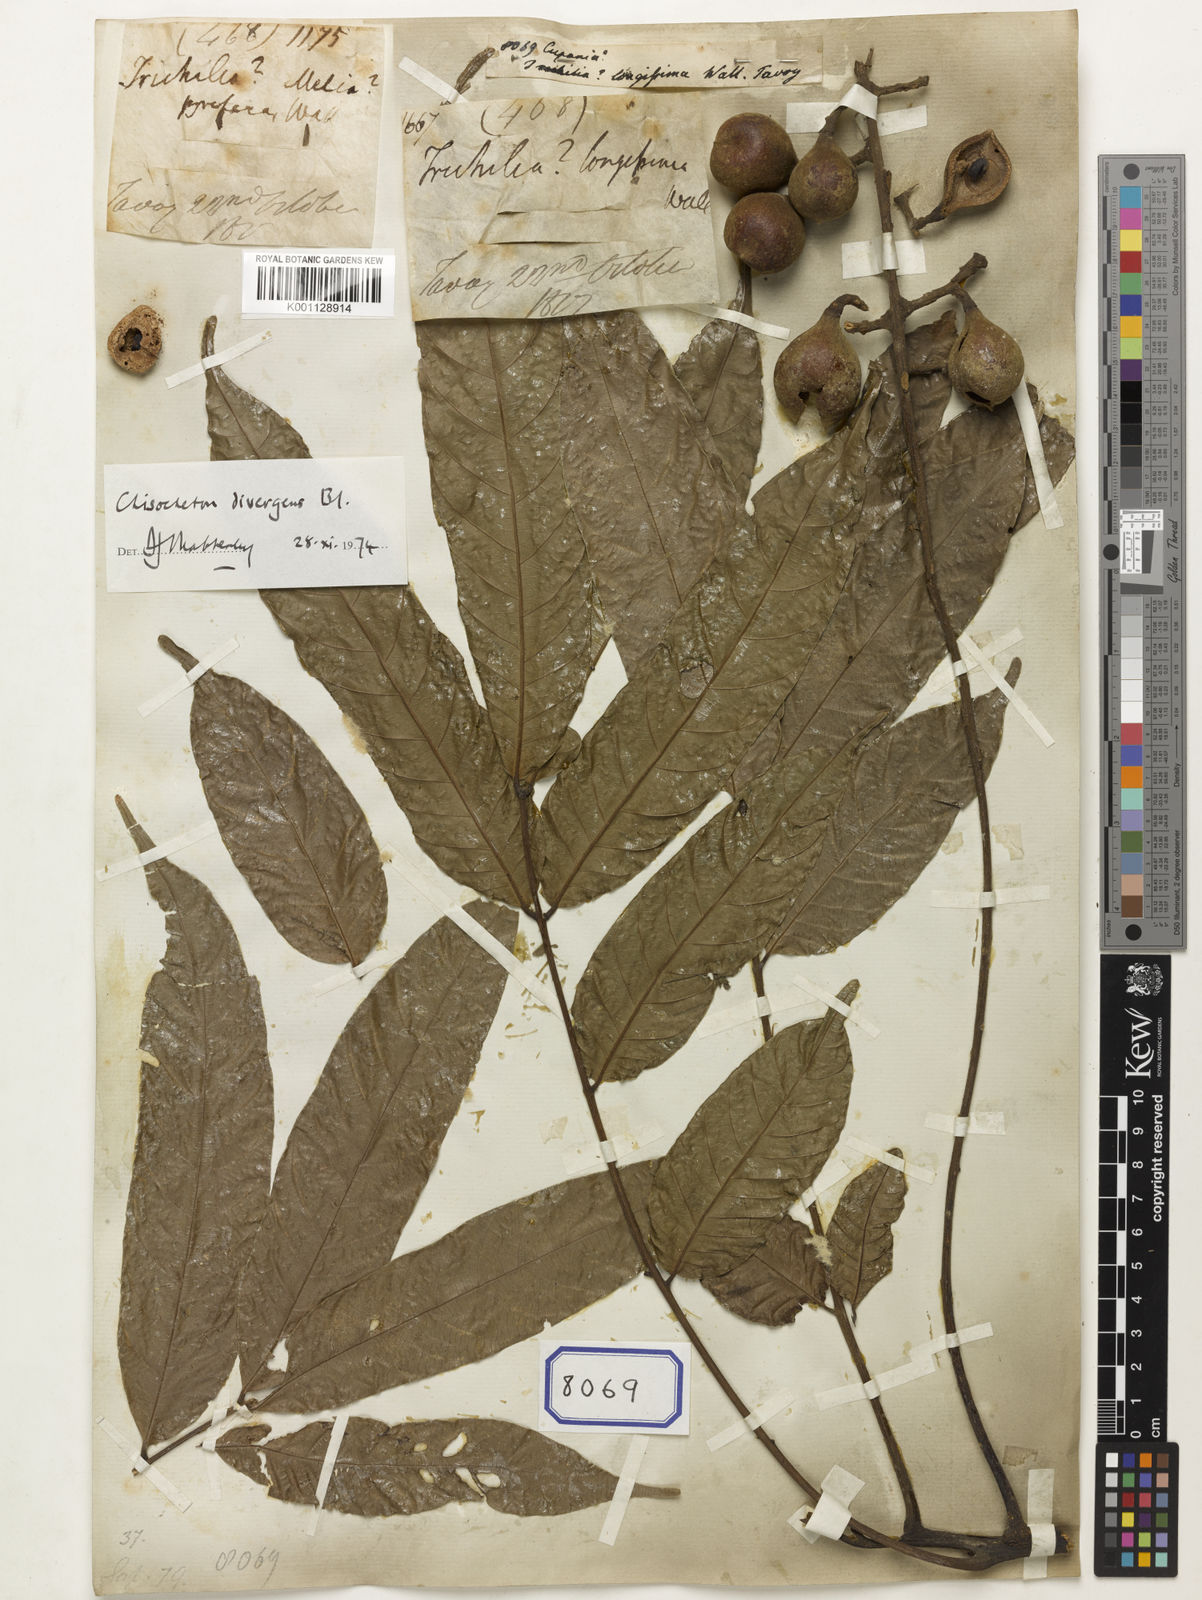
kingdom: Plantae
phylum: Tracheophyta
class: Magnoliopsida
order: Sapindales
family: Sapindaceae
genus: Cupania
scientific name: Cupania
